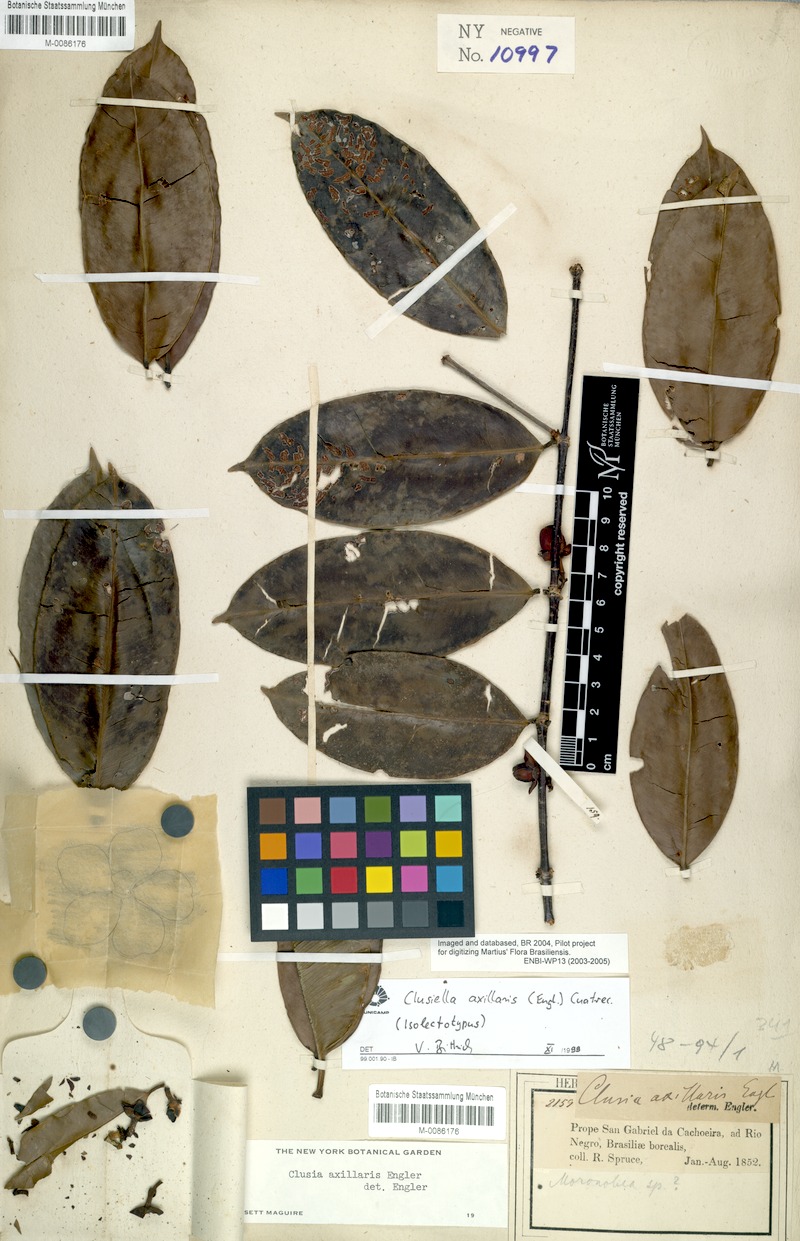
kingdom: Plantae
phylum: Tracheophyta
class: Magnoliopsida
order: Malpighiales
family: Calophyllaceae
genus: Clusiella
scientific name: Clusiella axillaris
